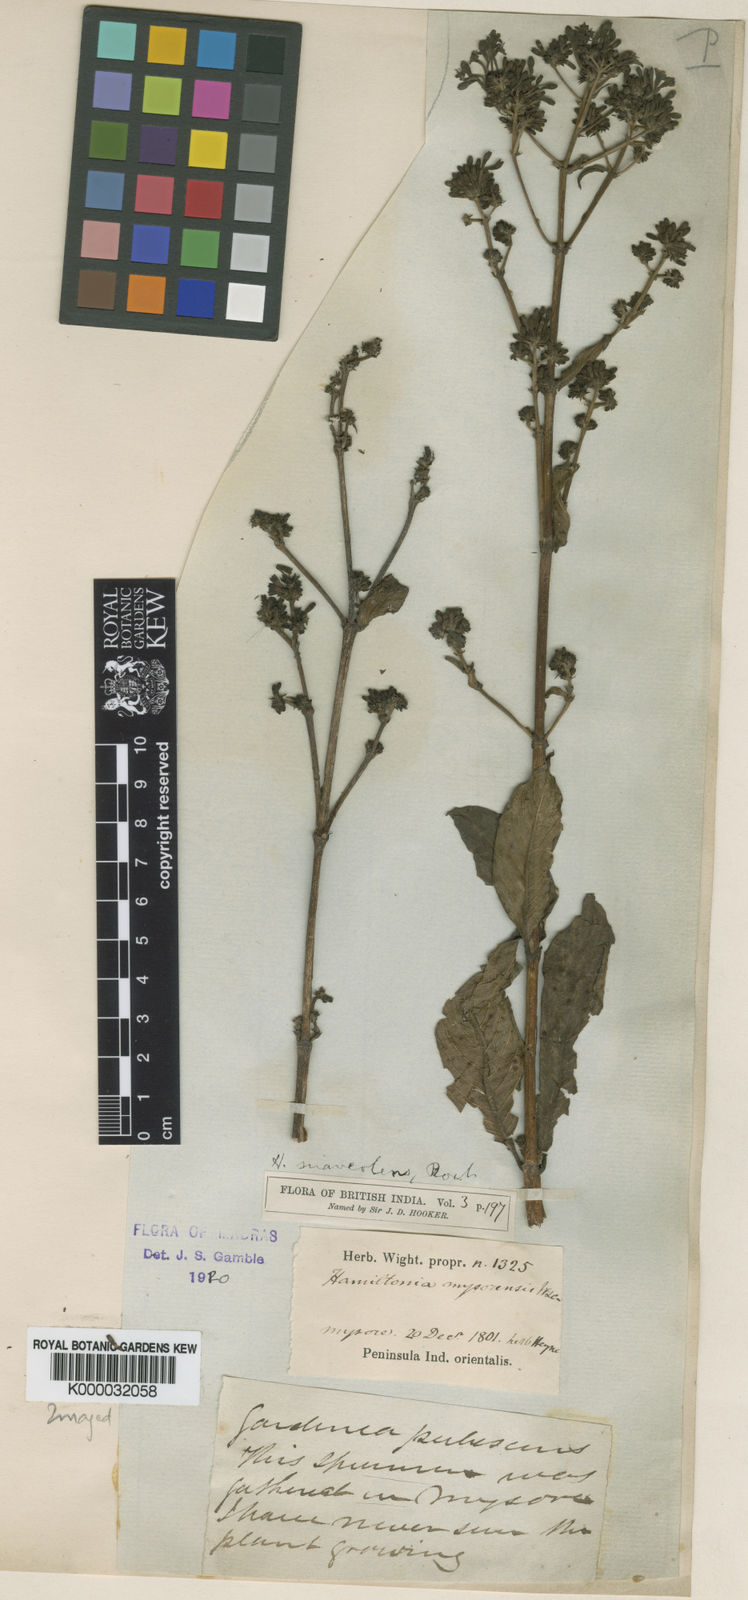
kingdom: Plantae
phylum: Tracheophyta
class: Magnoliopsida
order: Gentianales
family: Rubiaceae
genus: Spermadictyon
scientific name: Spermadictyon suaveolens
